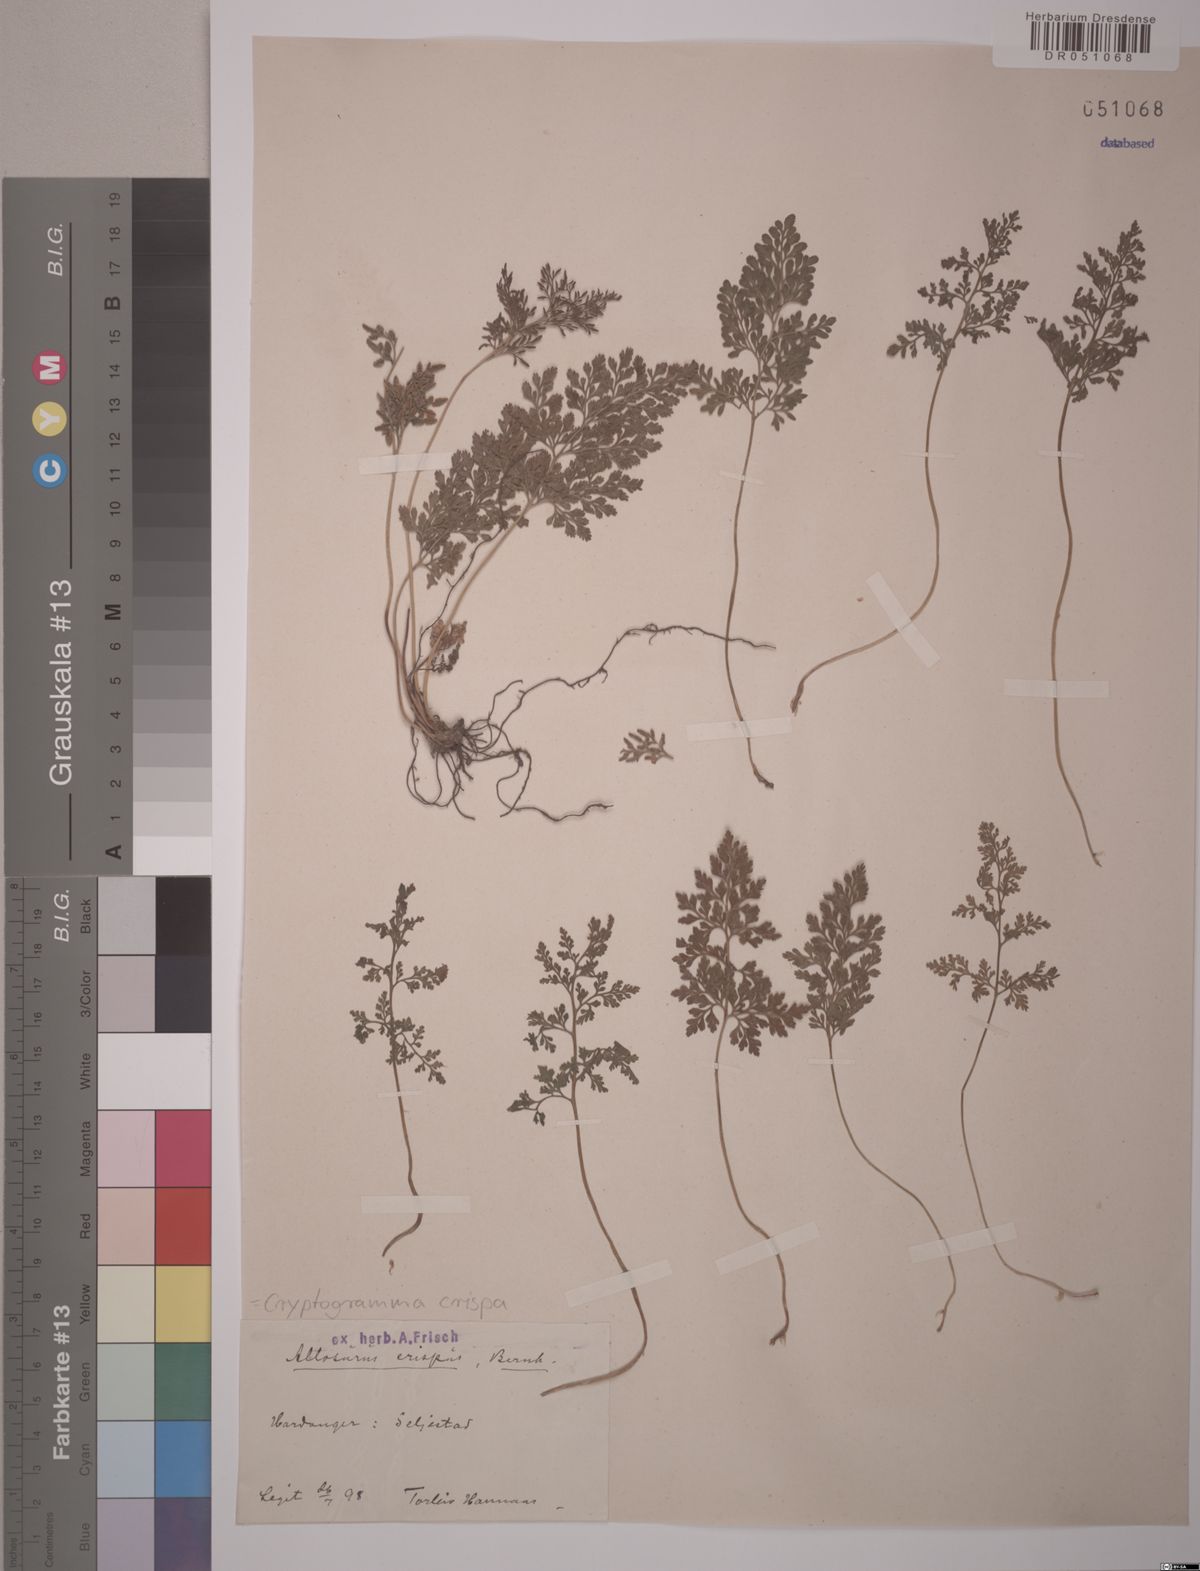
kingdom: Plantae
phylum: Tracheophyta
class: Polypodiopsida
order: Polypodiales
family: Pteridaceae
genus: Cryptogramma
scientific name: Cryptogramma crispa
